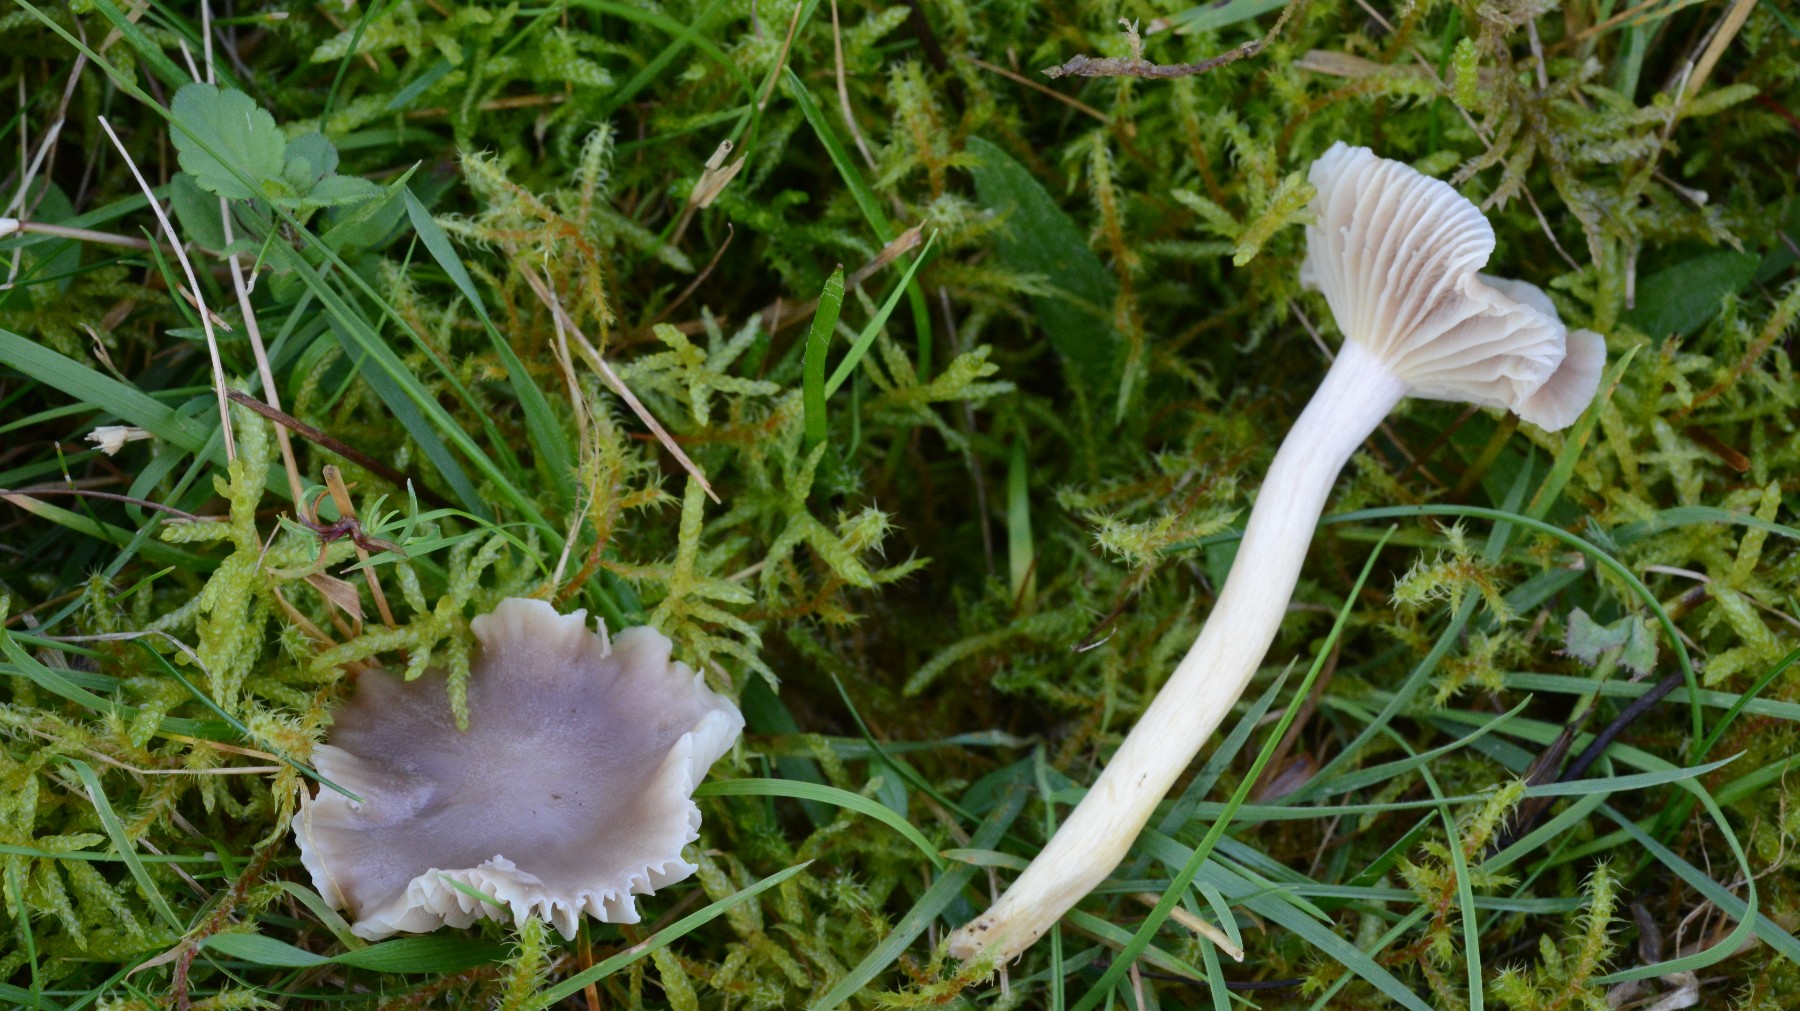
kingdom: Fungi
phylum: Basidiomycota
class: Agaricomycetes
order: Agaricales
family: Hygrophoraceae
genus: Cuphophyllus
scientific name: Cuphophyllus flavipes
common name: gulfodet vokshat
